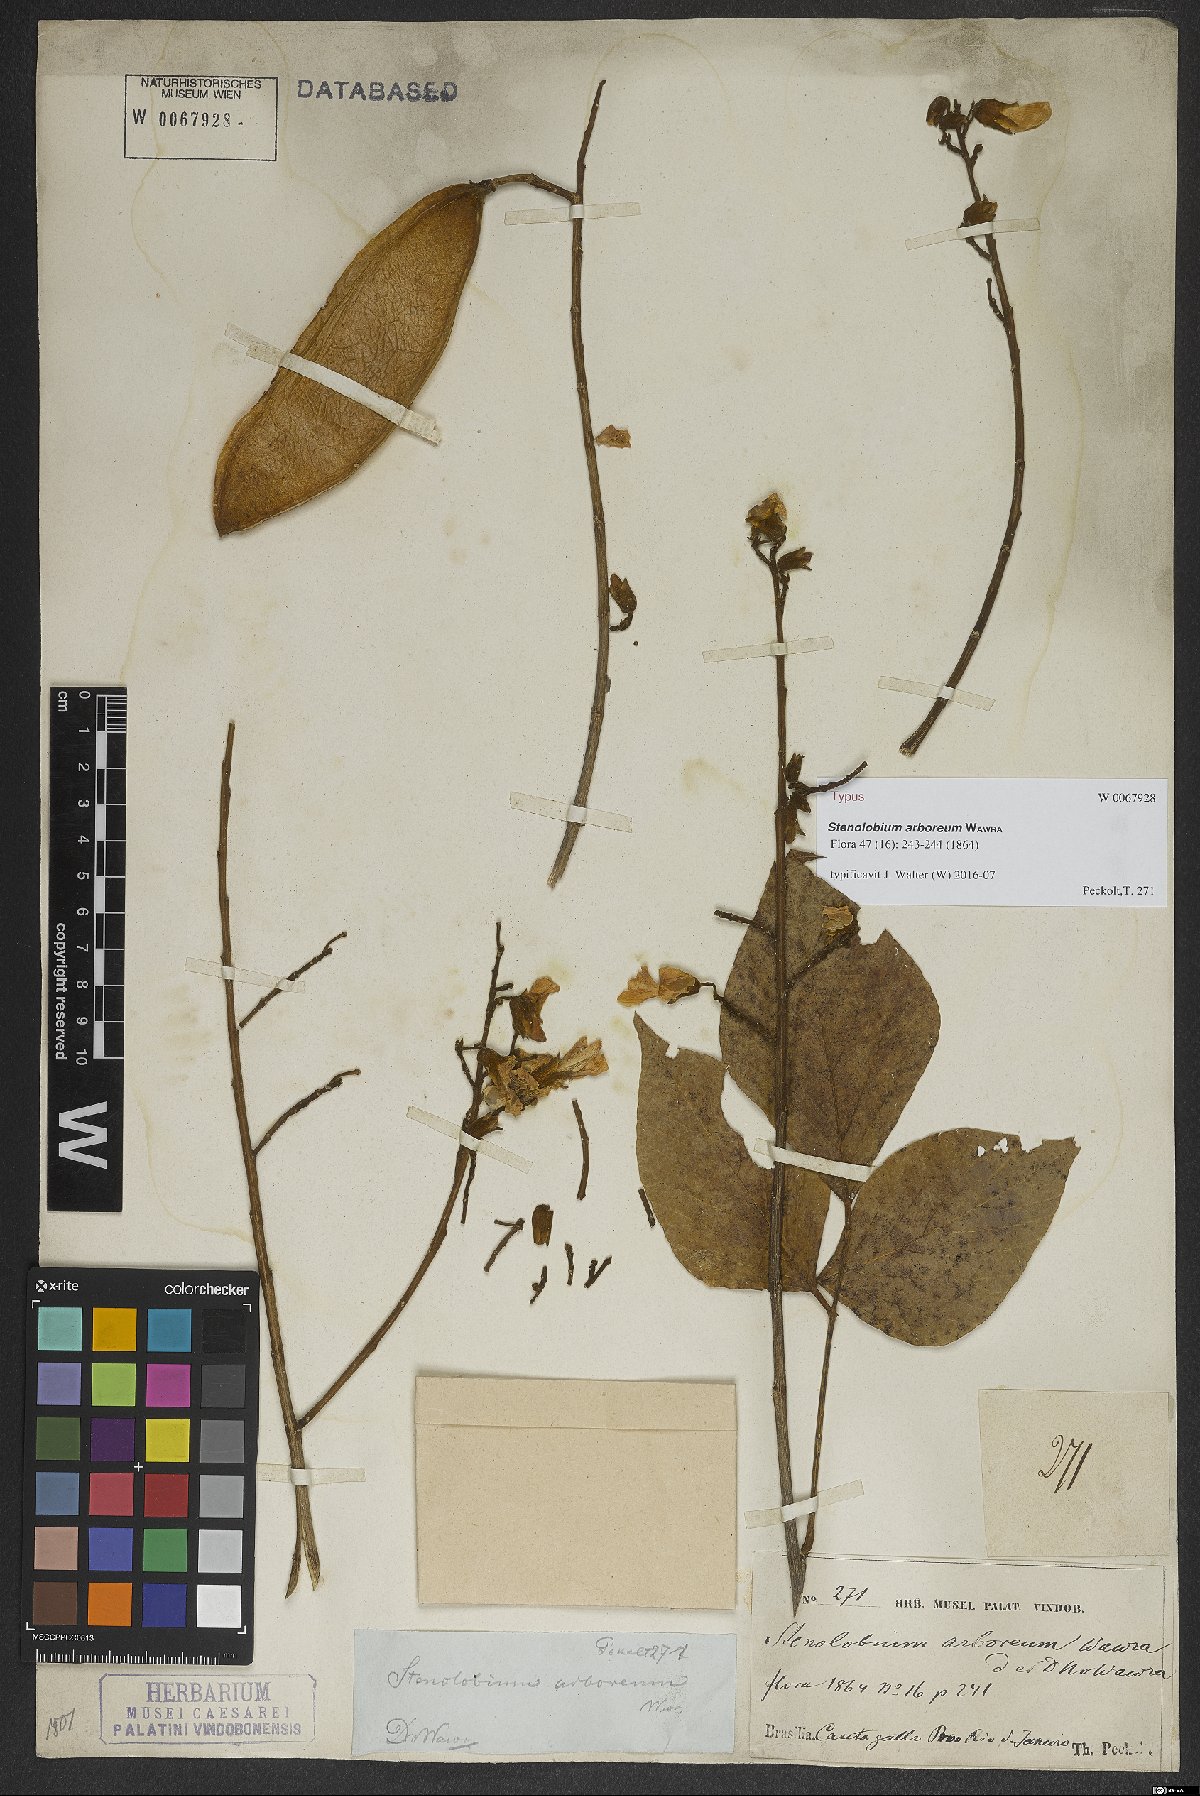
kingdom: Plantae
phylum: Tracheophyta
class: Magnoliopsida
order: Fabales
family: Fabaceae
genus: Calopogonium
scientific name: Calopogonium Stenolobium arboreum
